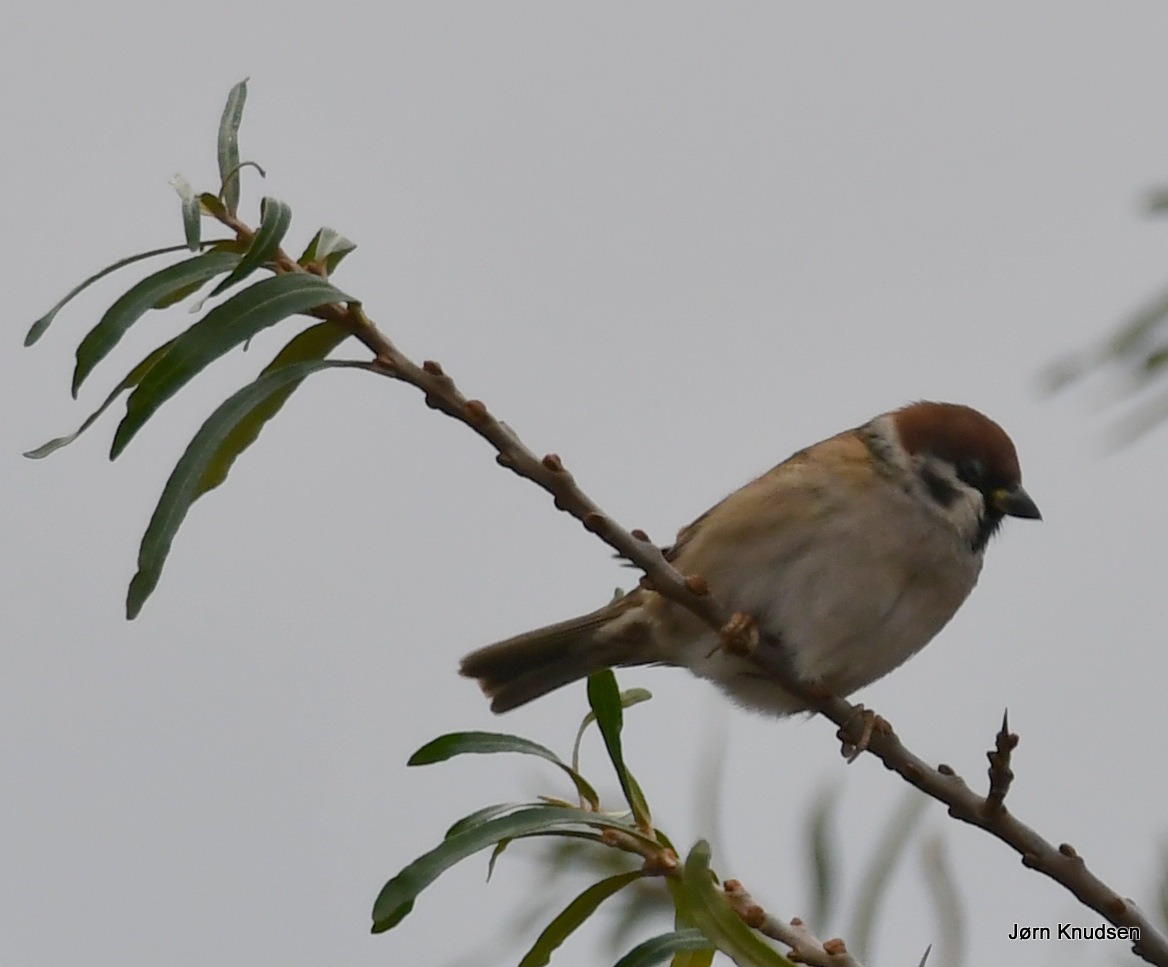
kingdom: Animalia
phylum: Chordata
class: Aves
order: Passeriformes
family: Passeridae
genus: Passer
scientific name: Passer montanus
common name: Skovspurv
